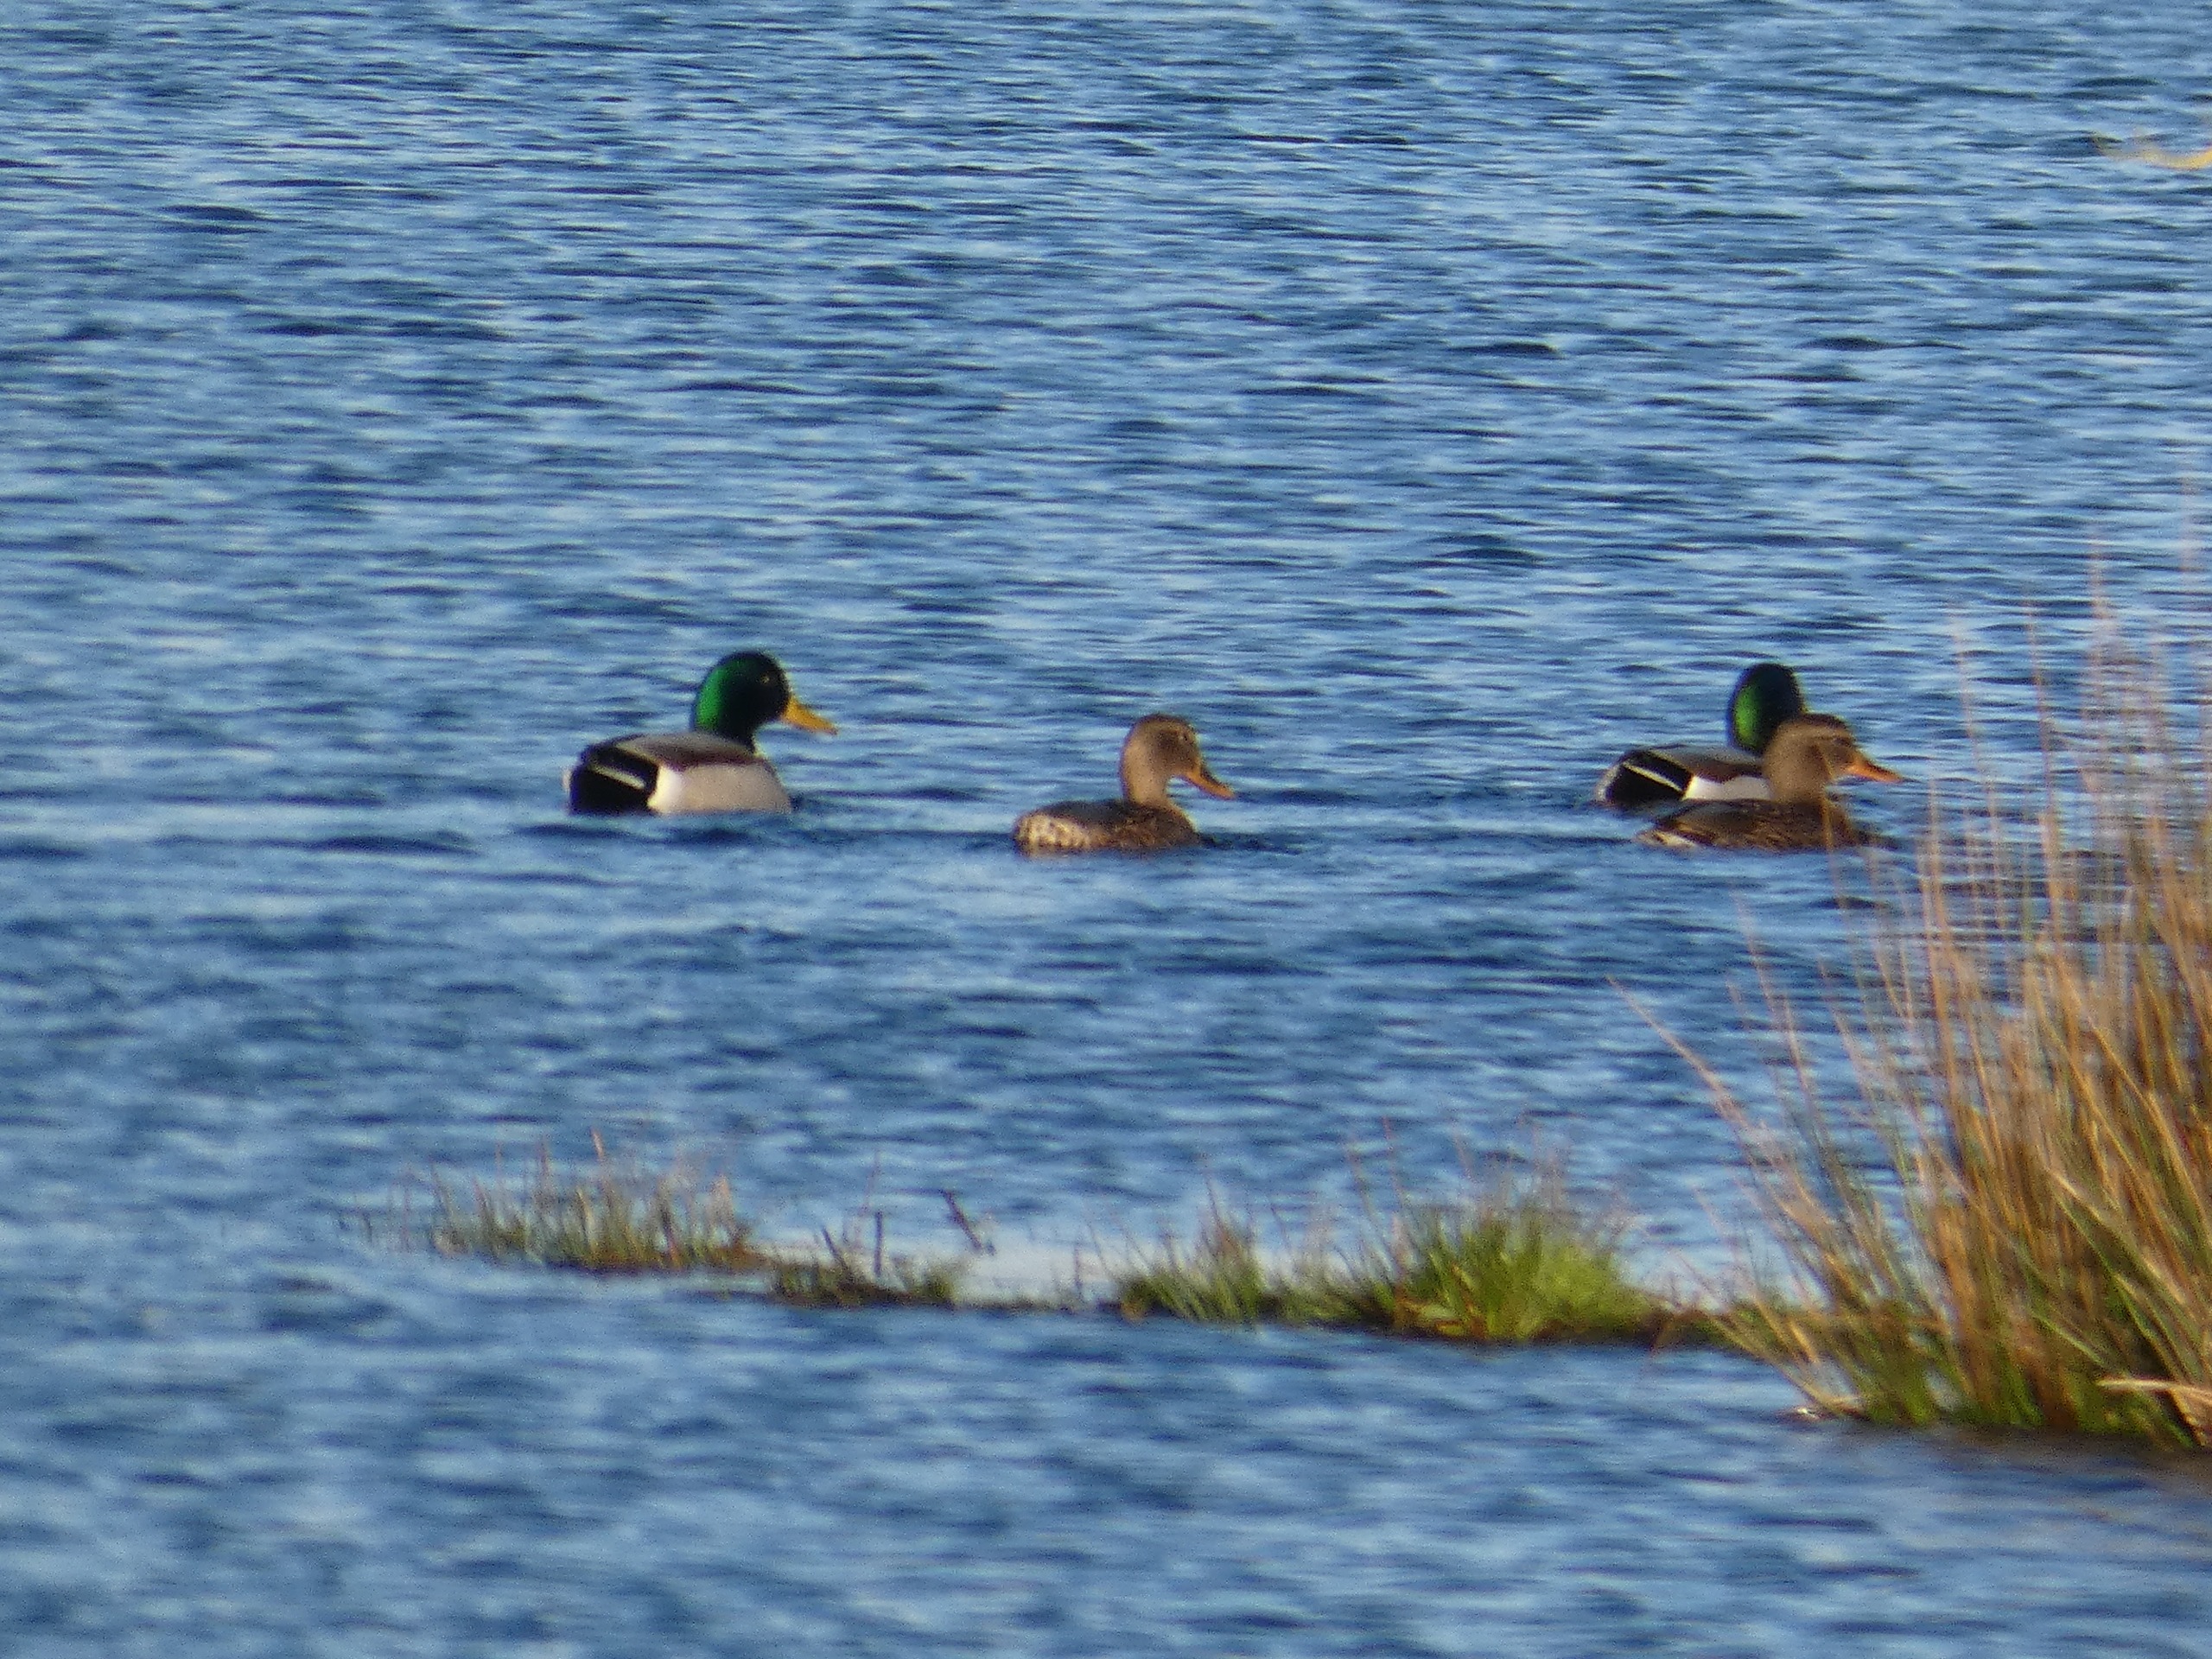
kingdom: Animalia
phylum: Chordata
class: Aves
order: Anseriformes
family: Anatidae
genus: Anas
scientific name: Anas platyrhynchos
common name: Gråand
